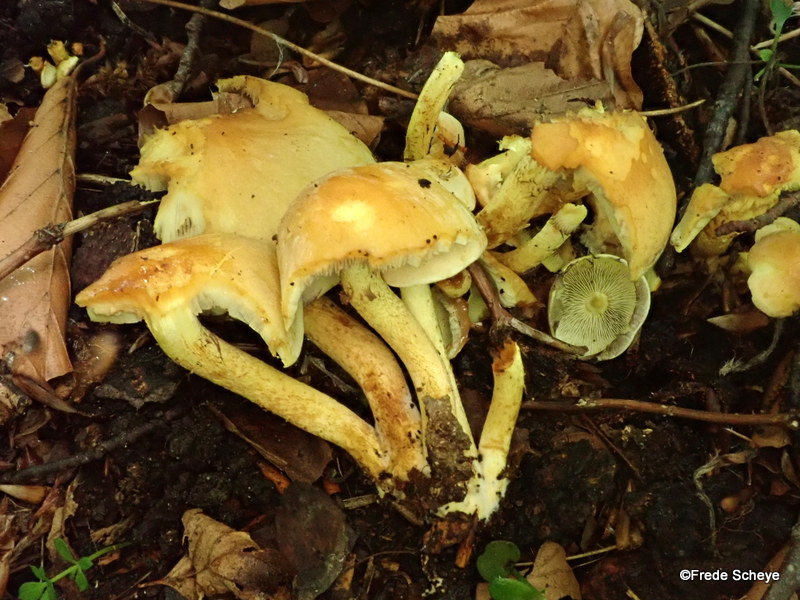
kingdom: Fungi
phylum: Basidiomycota
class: Agaricomycetes
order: Agaricales
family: Strophariaceae
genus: Hypholoma
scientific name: Hypholoma fasciculare
